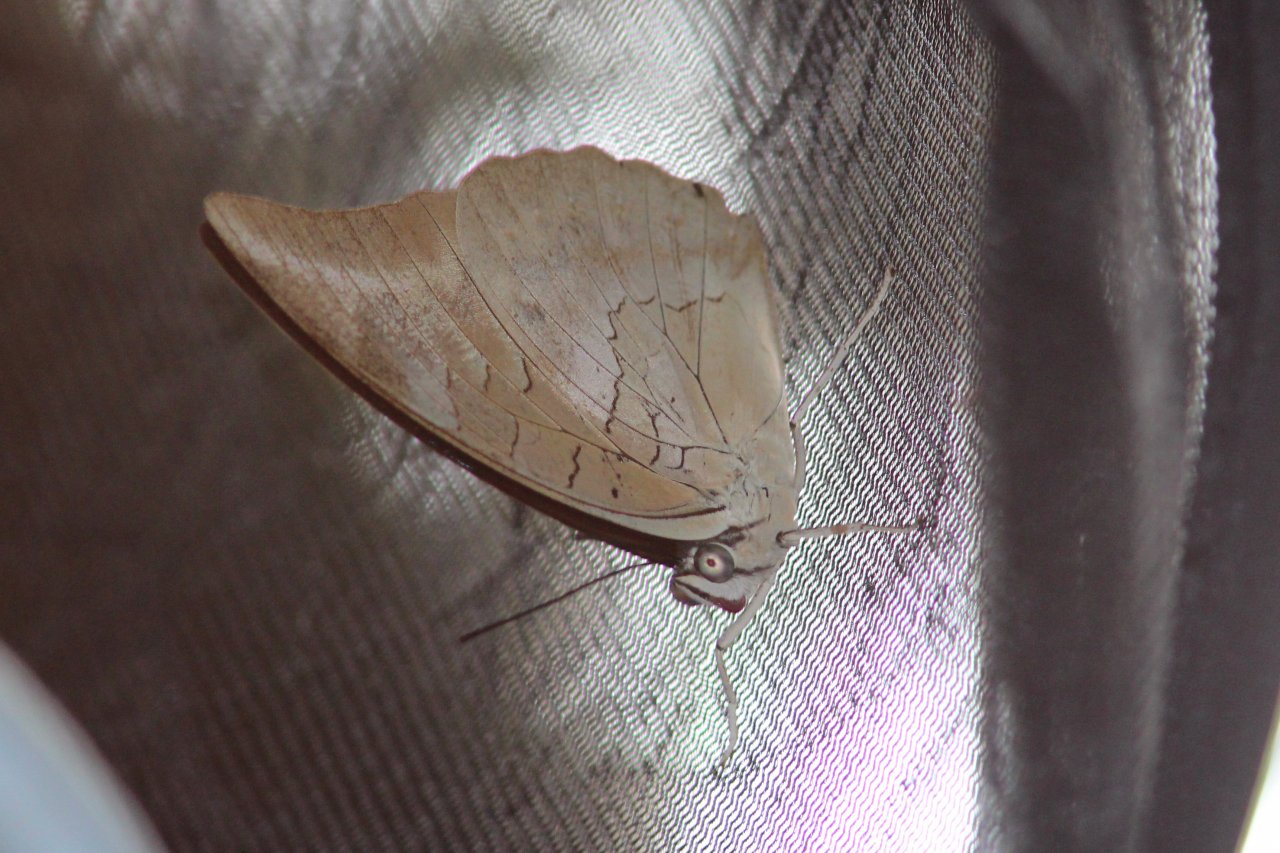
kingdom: Animalia
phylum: Arthropoda
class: Insecta
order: Lepidoptera
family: Nymphalidae
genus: Prepona
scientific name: Prepona demophoon
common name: Two-spotted Prepona
